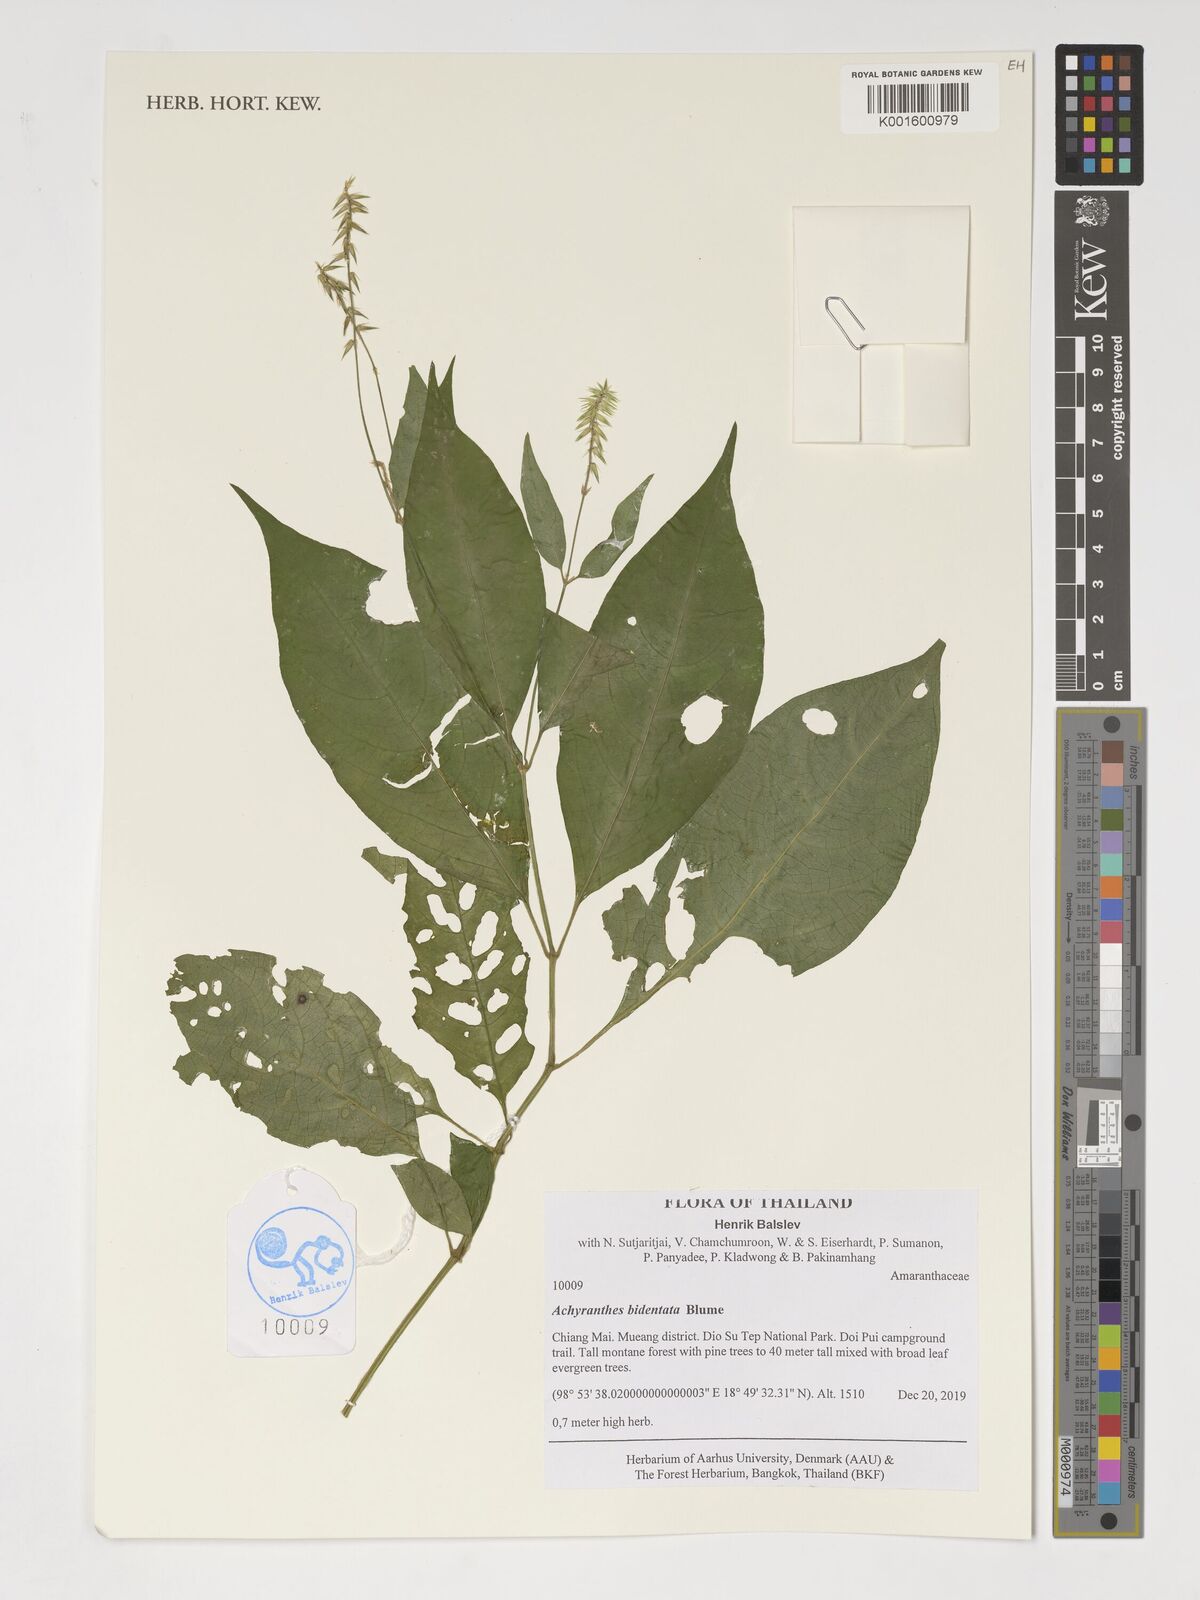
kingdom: Plantae
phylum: Tracheophyta
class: Magnoliopsida
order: Caryophyllales
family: Amaranthaceae
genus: Achyranthes
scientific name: Achyranthes bidentata
